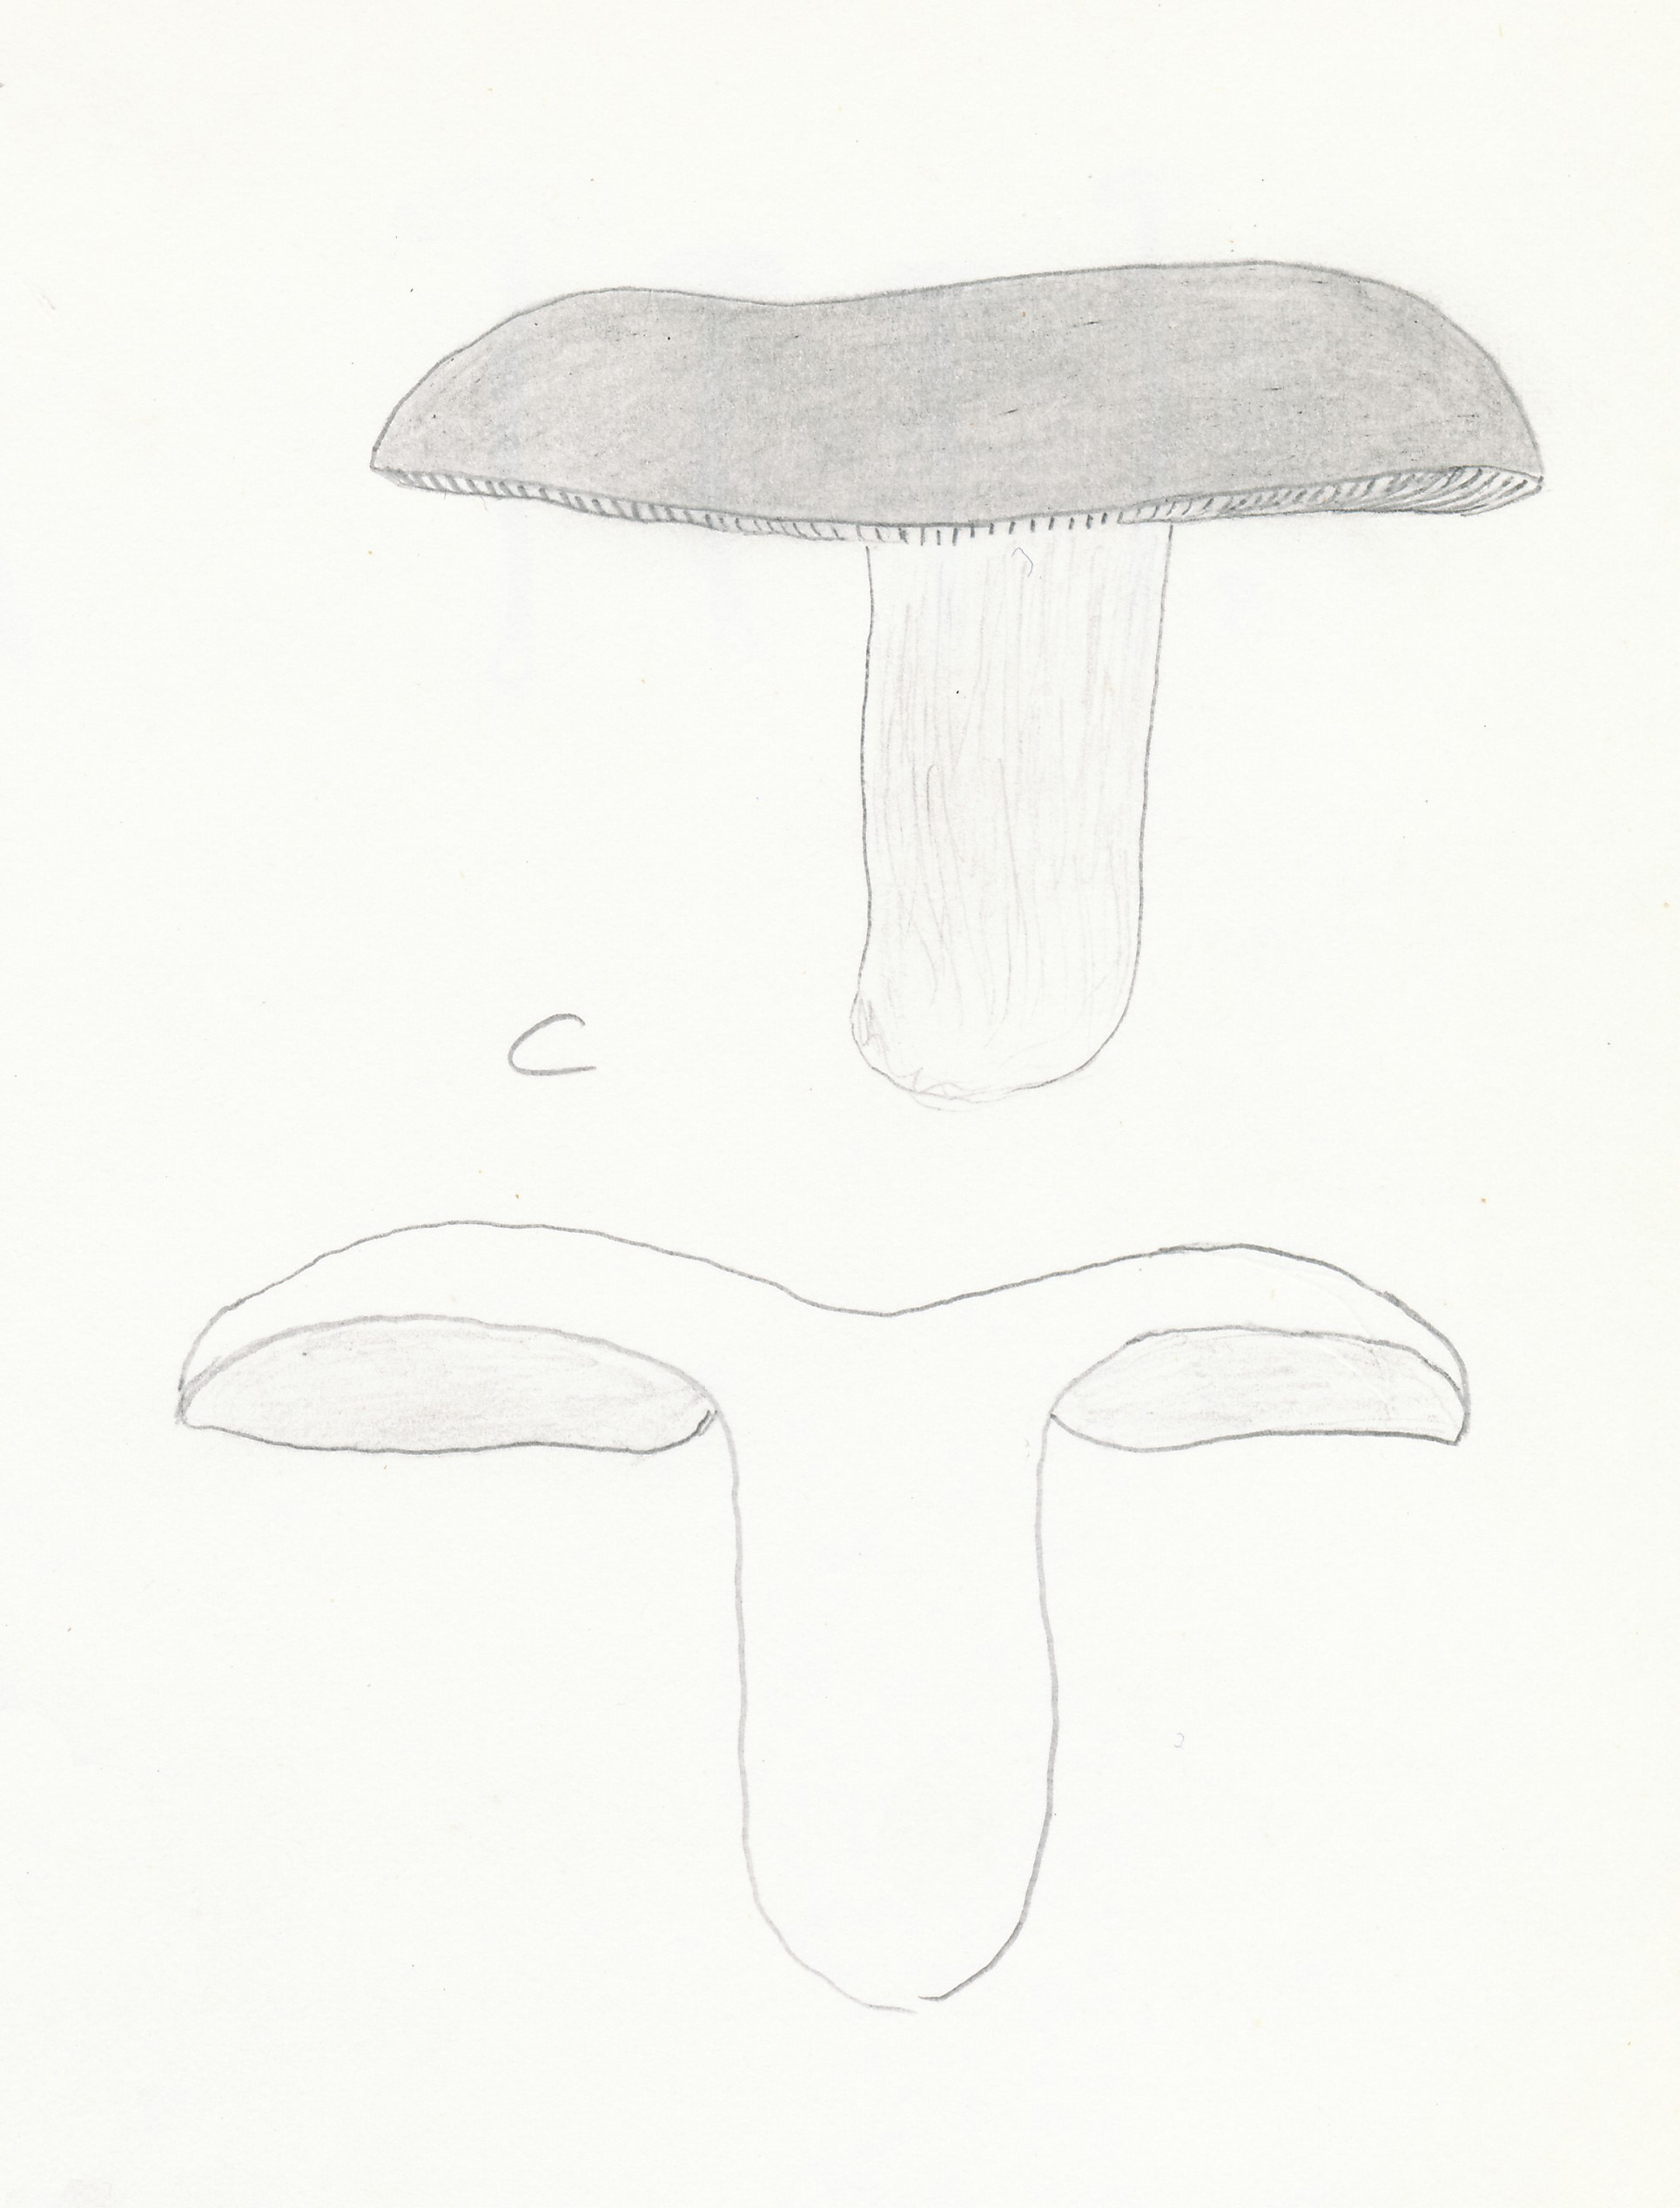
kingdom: Fungi
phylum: Basidiomycota
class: Agaricomycetes
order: Russulales
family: Russulaceae
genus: Russula
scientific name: Russula aurea
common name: gylden skørhat
